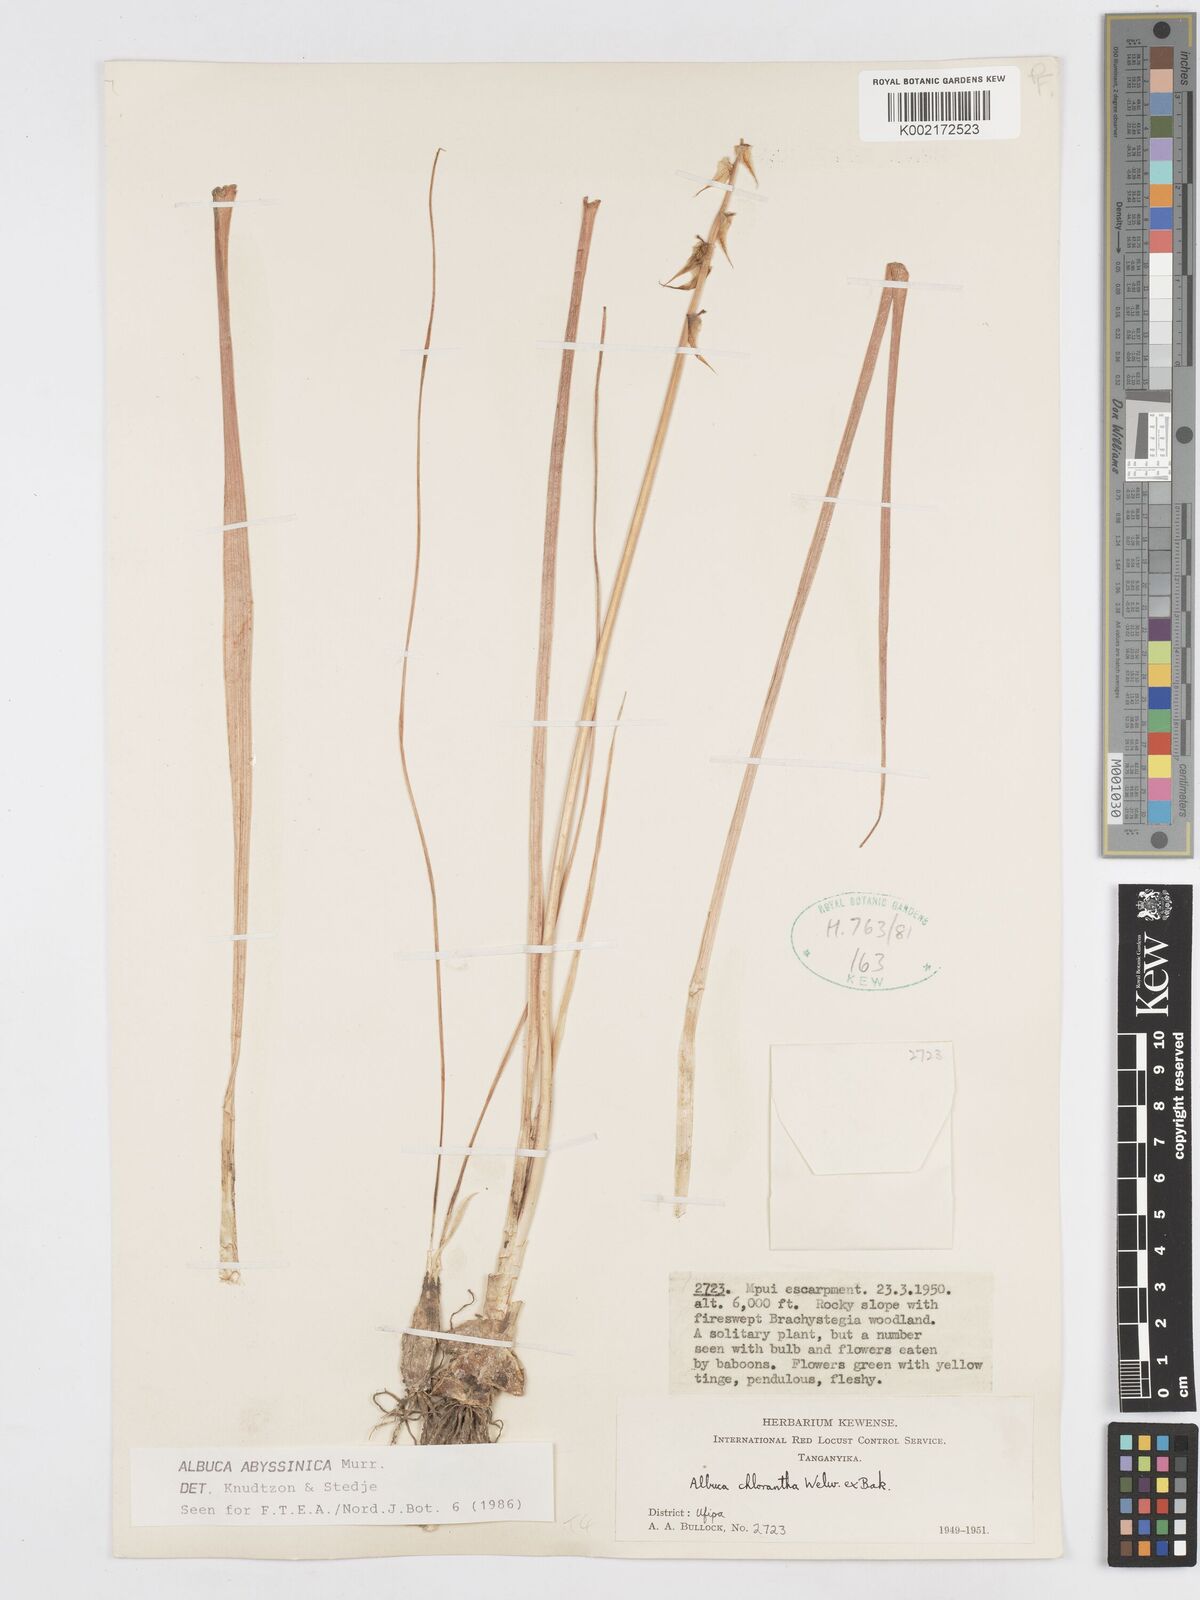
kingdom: Plantae
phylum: Tracheophyta
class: Liliopsida
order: Asparagales
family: Asparagaceae
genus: Albuca
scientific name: Albuca abyssinica
